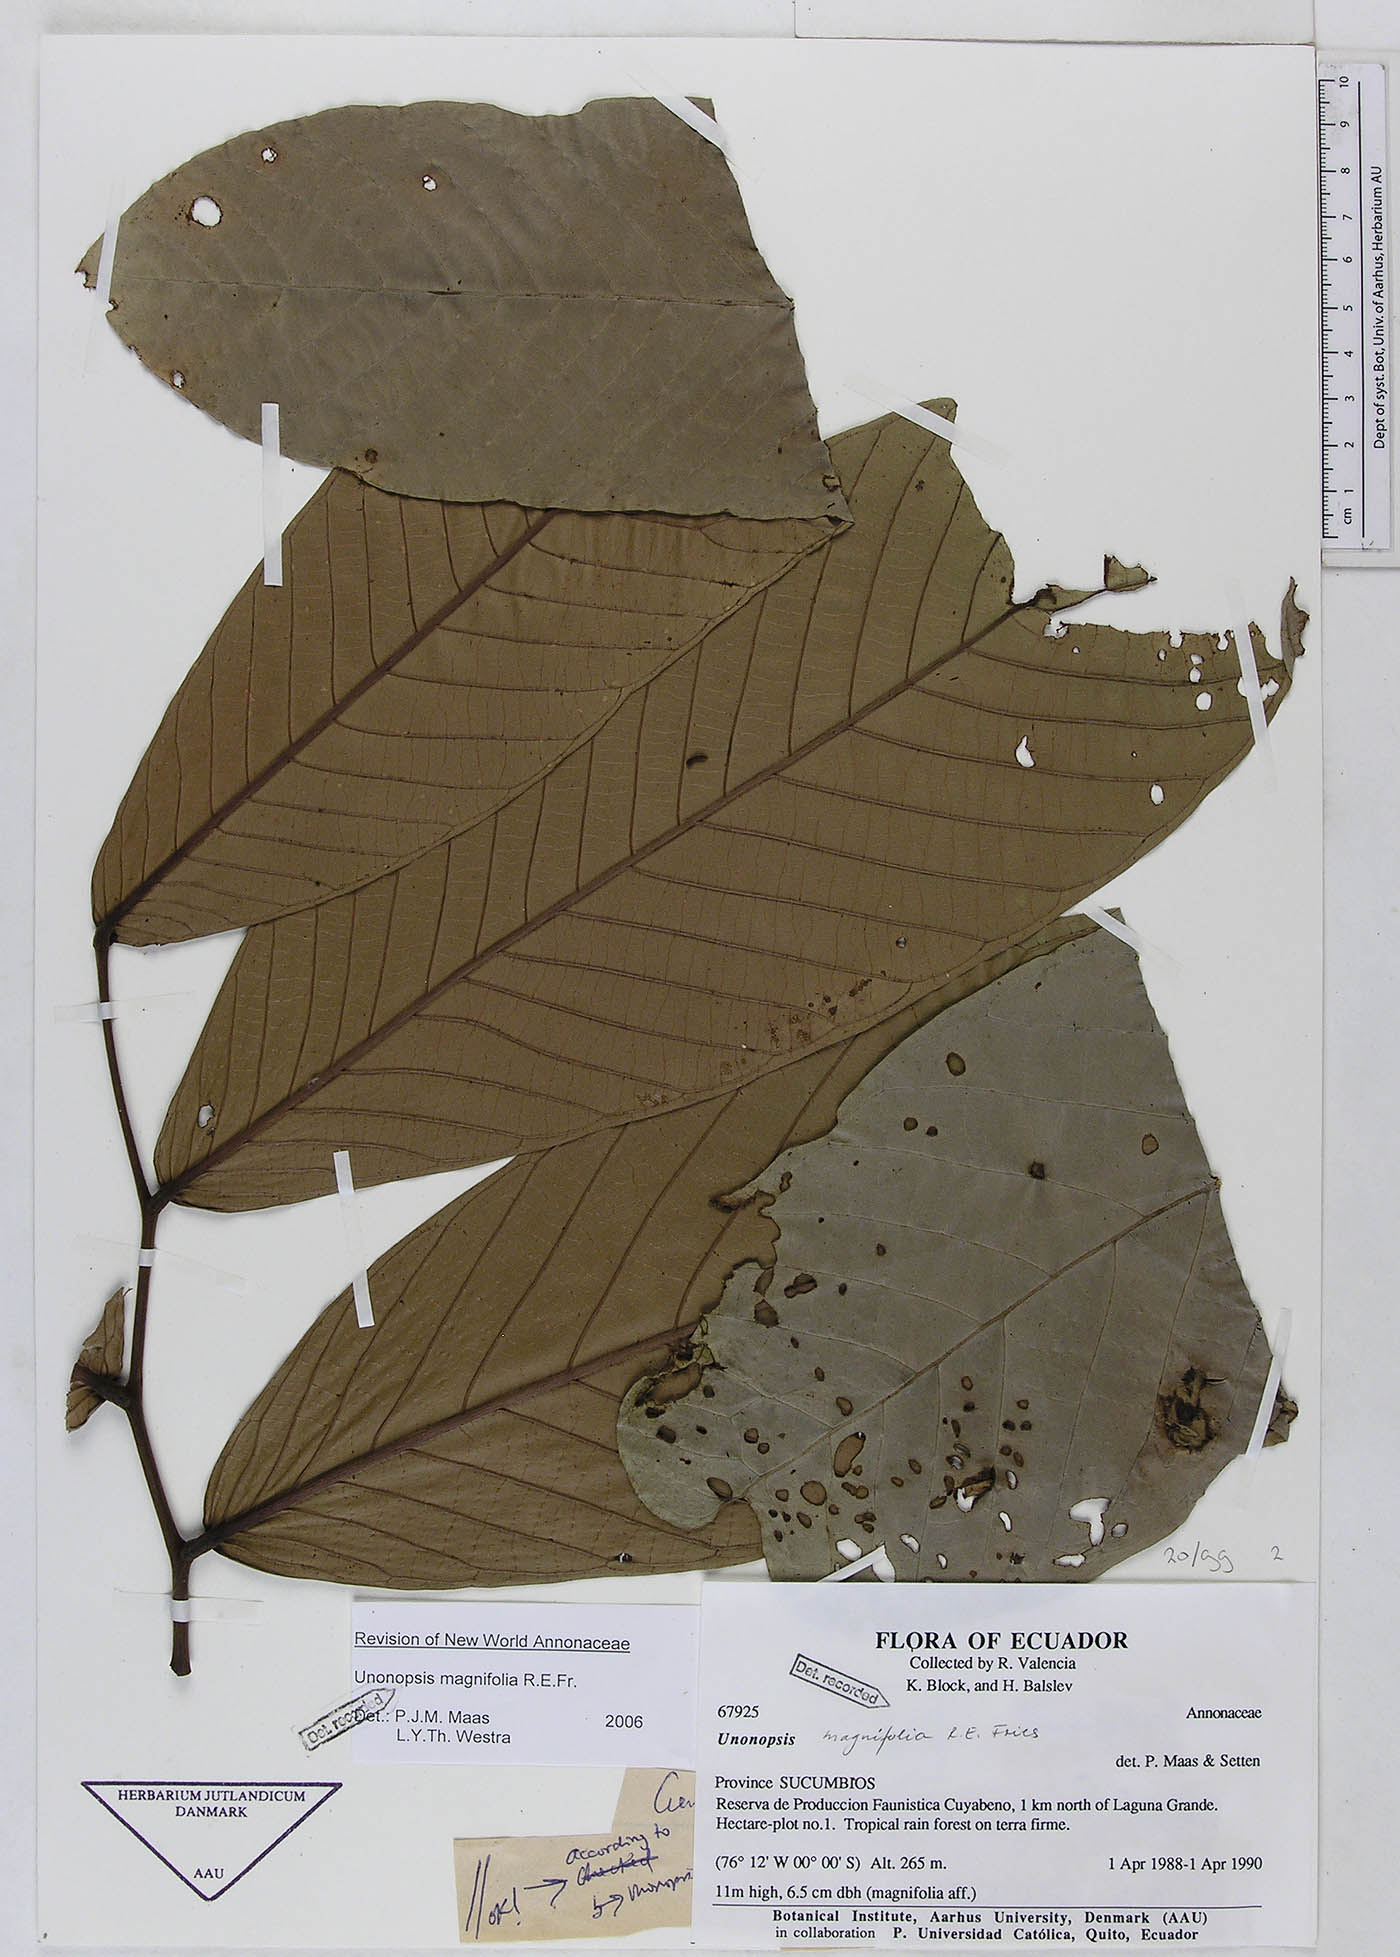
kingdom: Plantae
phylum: Tracheophyta
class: Magnoliopsida
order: Magnoliales
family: Annonaceae
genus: Unonopsis
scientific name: Unonopsis magnifolia
